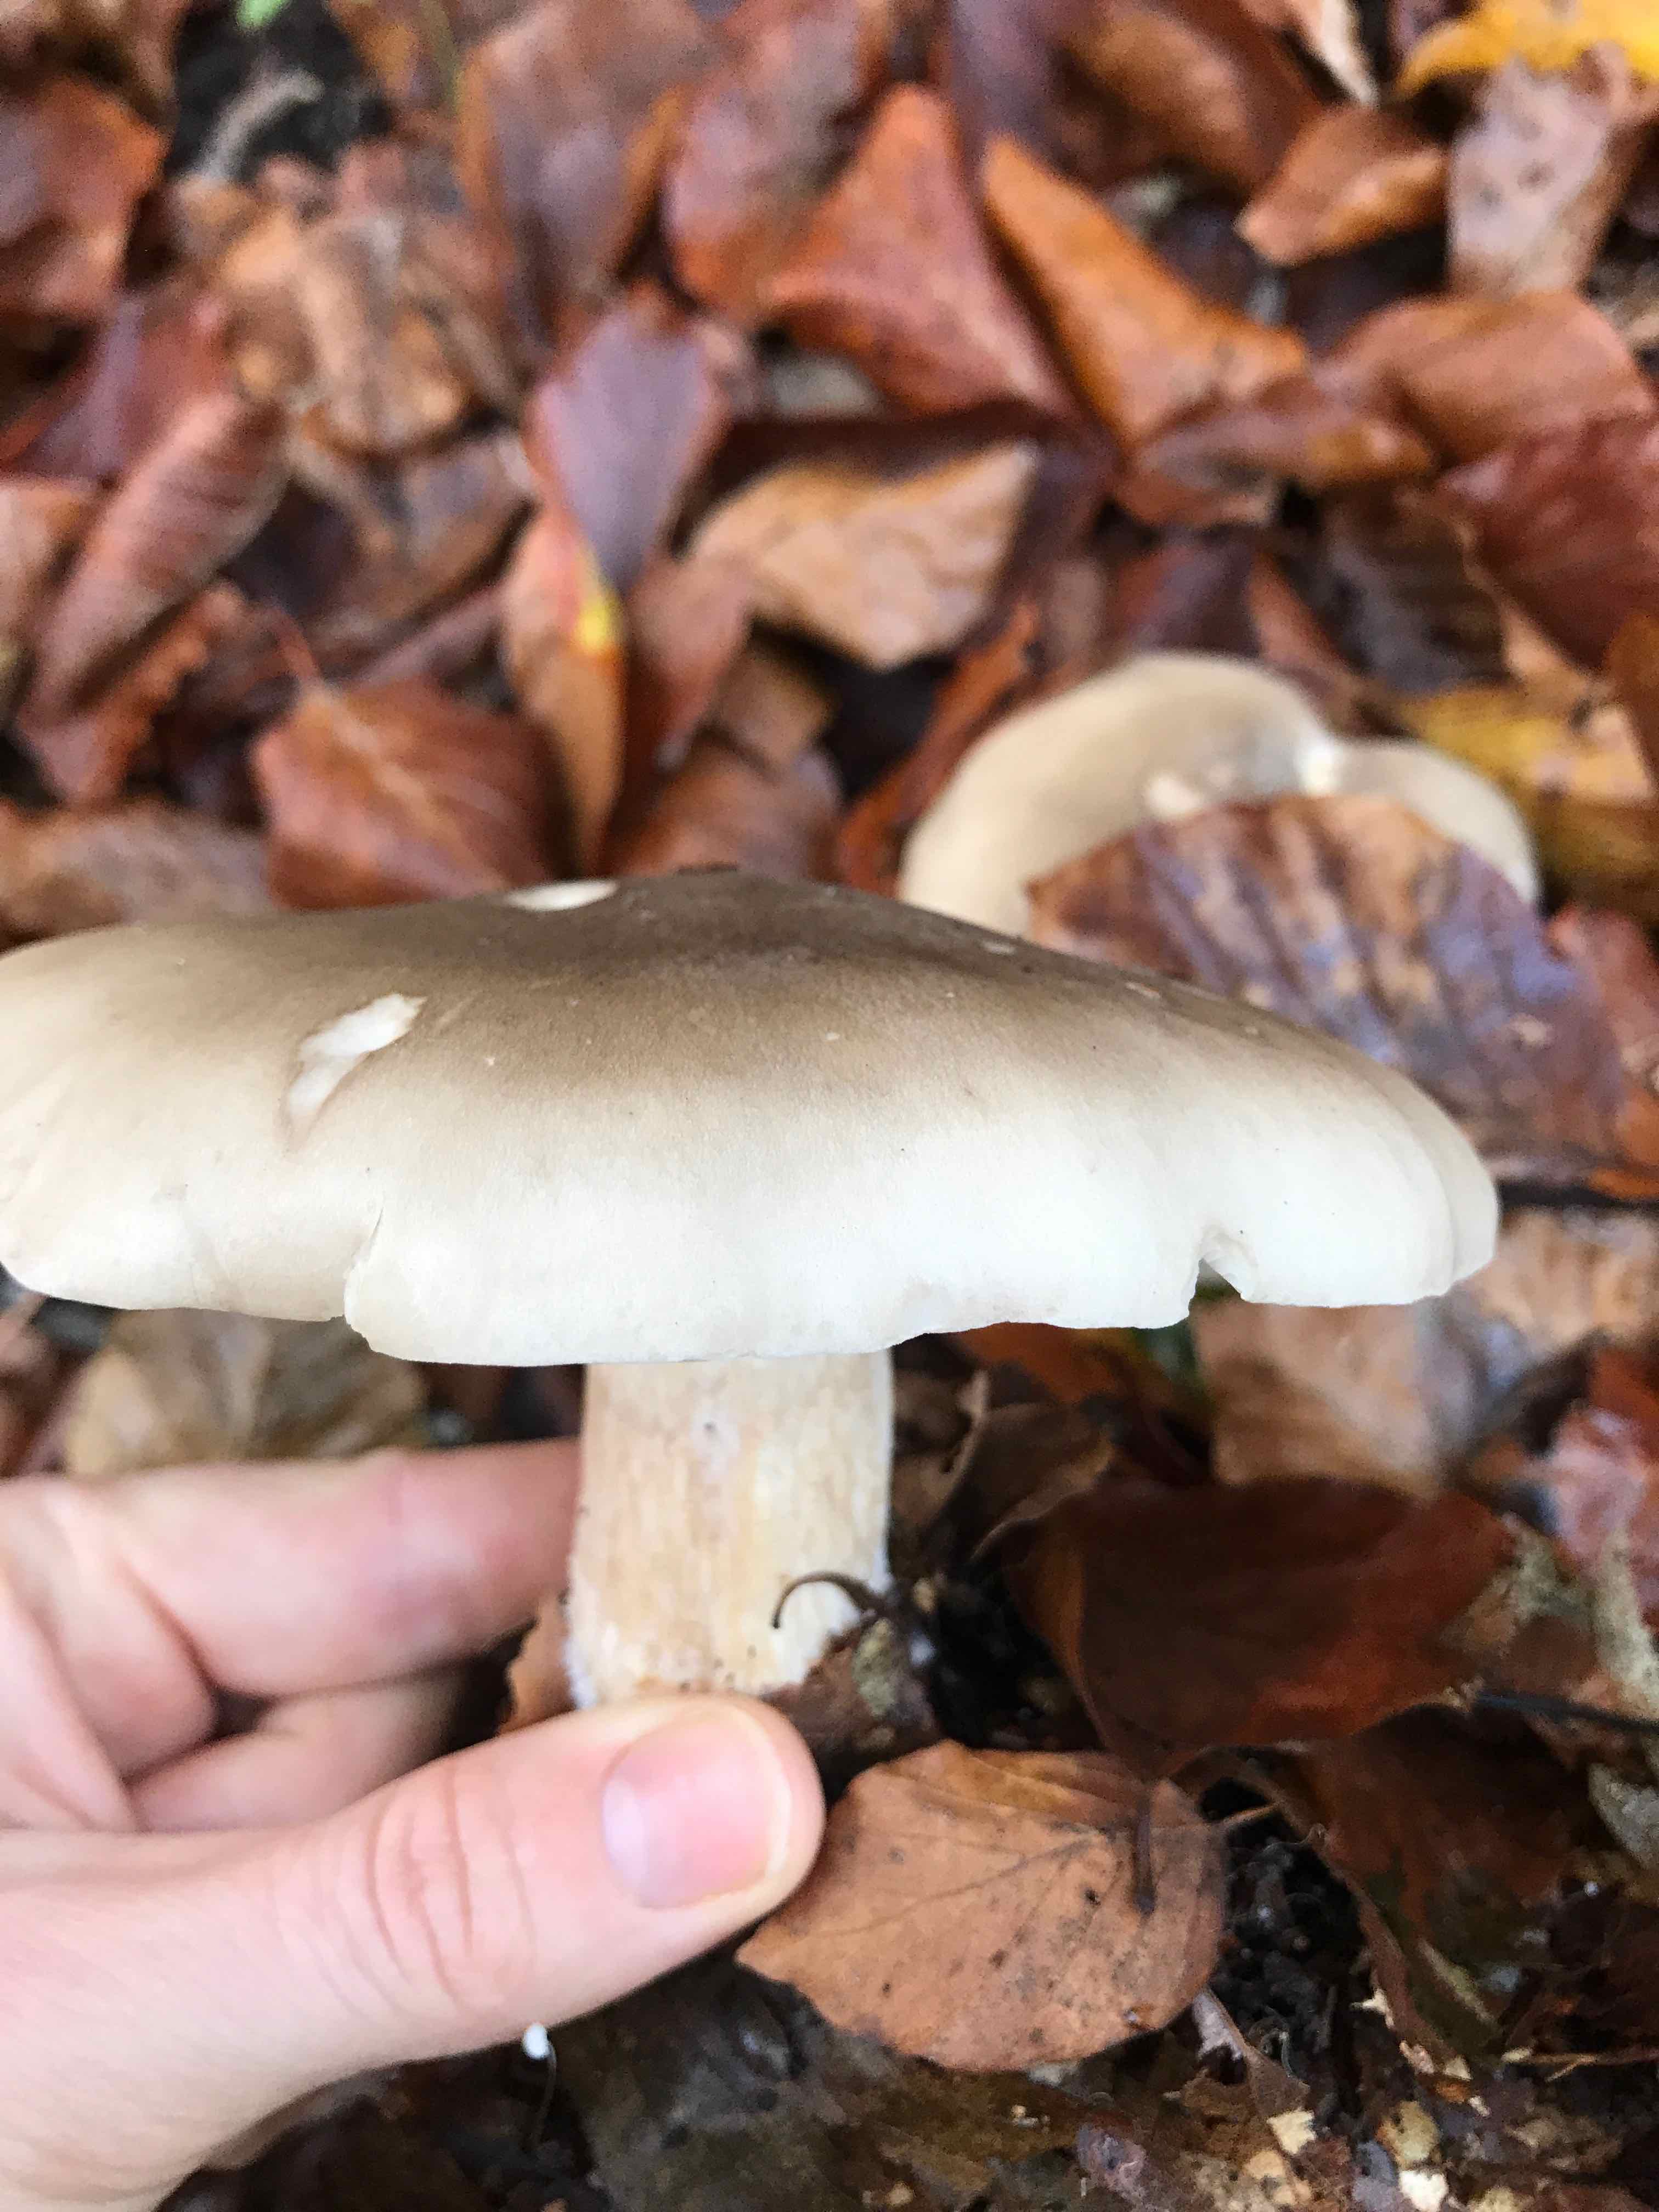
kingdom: Fungi
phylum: Basidiomycota
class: Agaricomycetes
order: Agaricales
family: Tricholomataceae
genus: Clitocybe
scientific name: Clitocybe nebularis
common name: tåge-tragthat
